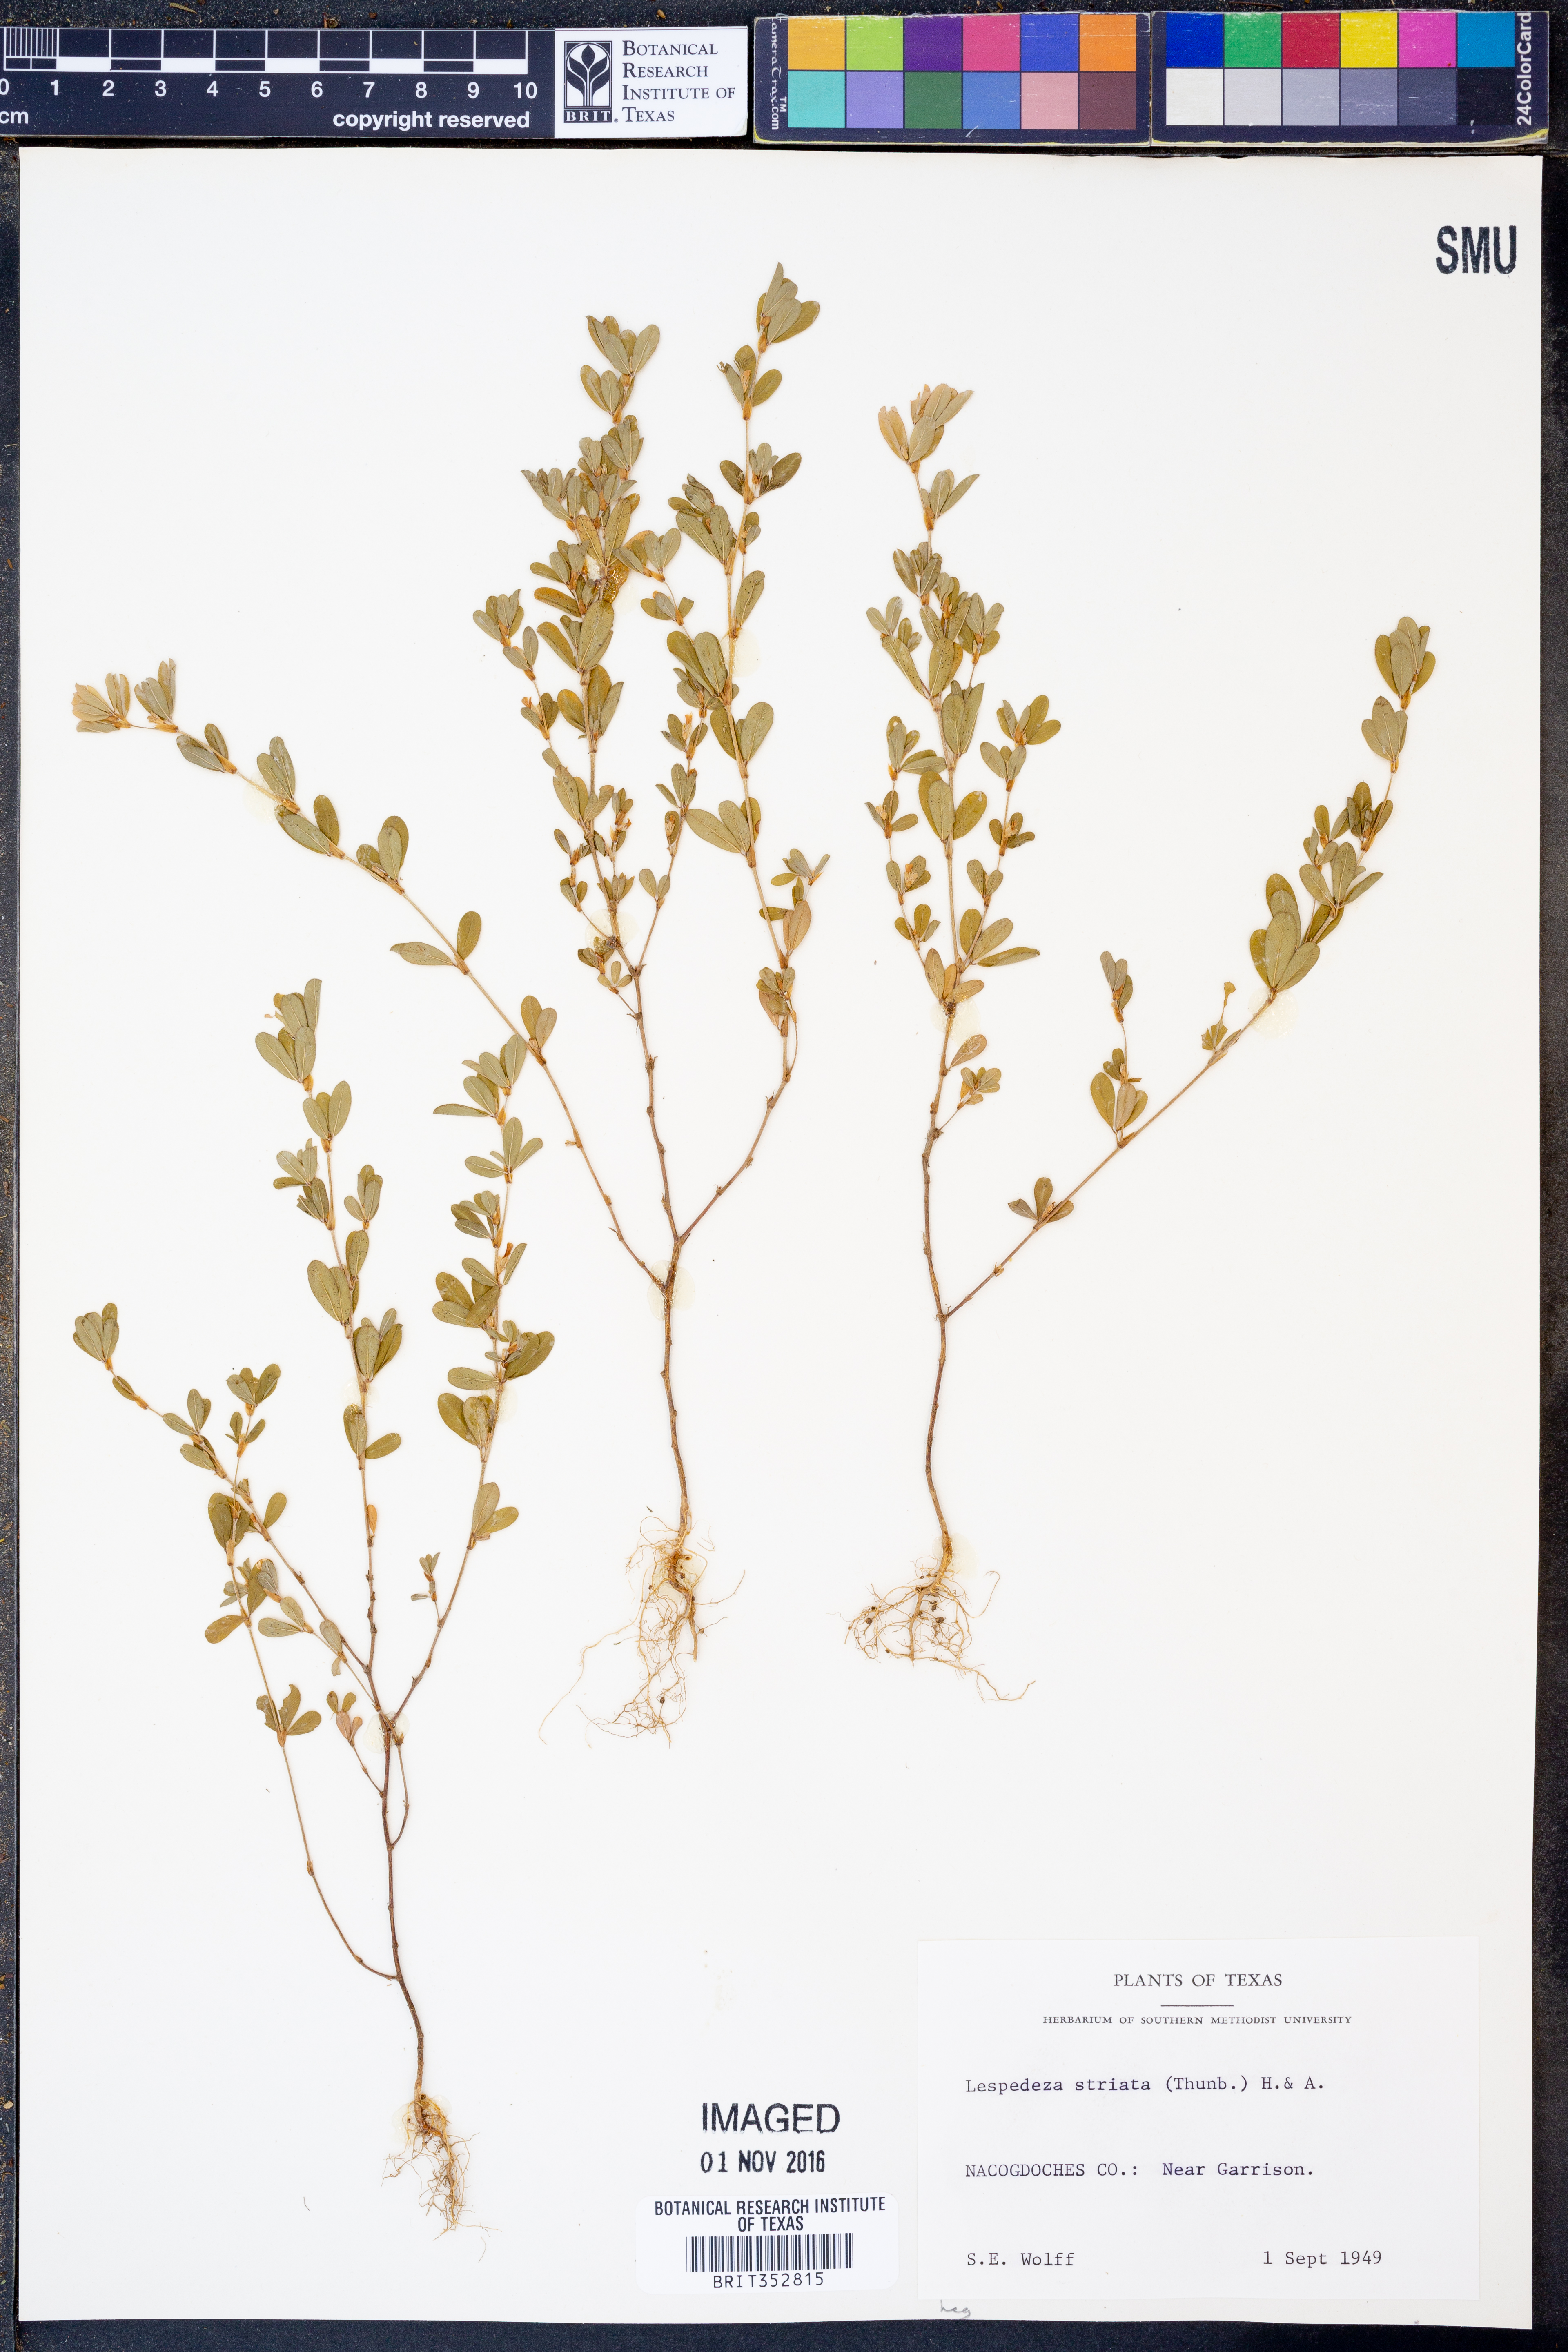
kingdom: Plantae
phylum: Tracheophyta
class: Magnoliopsida
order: Fabales
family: Fabaceae
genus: Kummerowia
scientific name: Kummerowia striata
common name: Japanese clover
